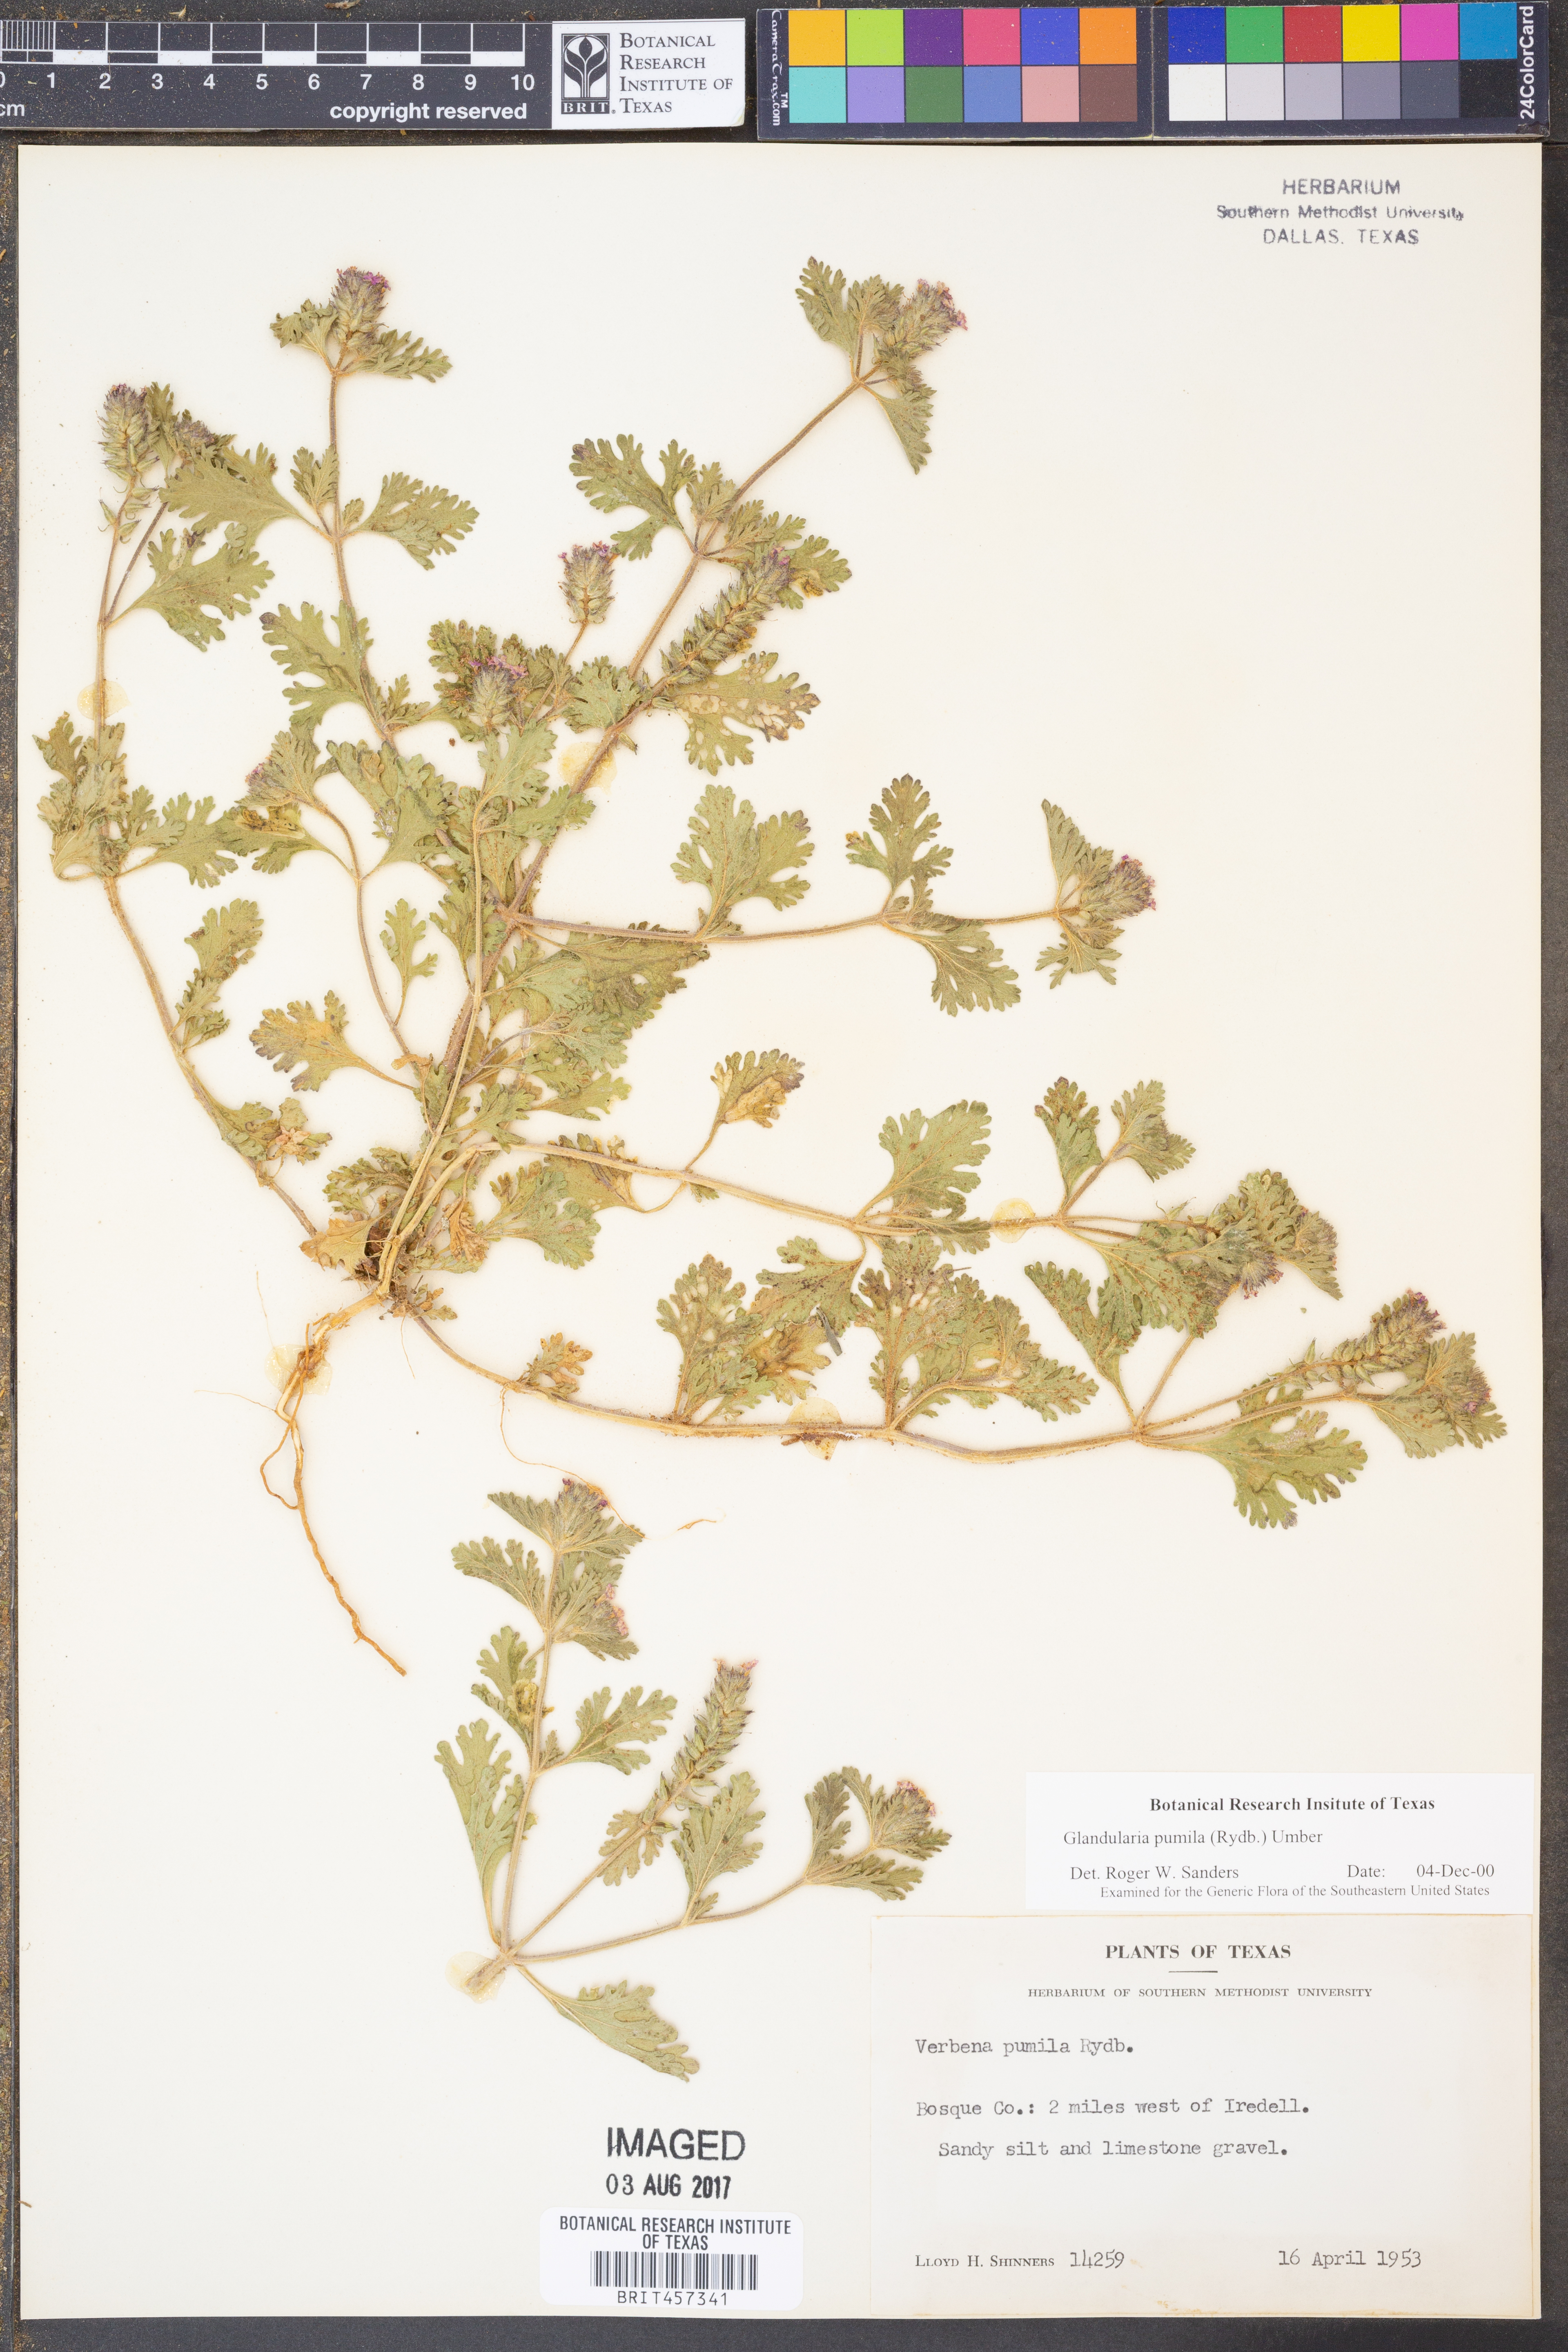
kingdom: Plantae
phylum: Tracheophyta
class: Magnoliopsida
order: Lamiales
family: Verbenaceae
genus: Verbena
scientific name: Verbena pumila
